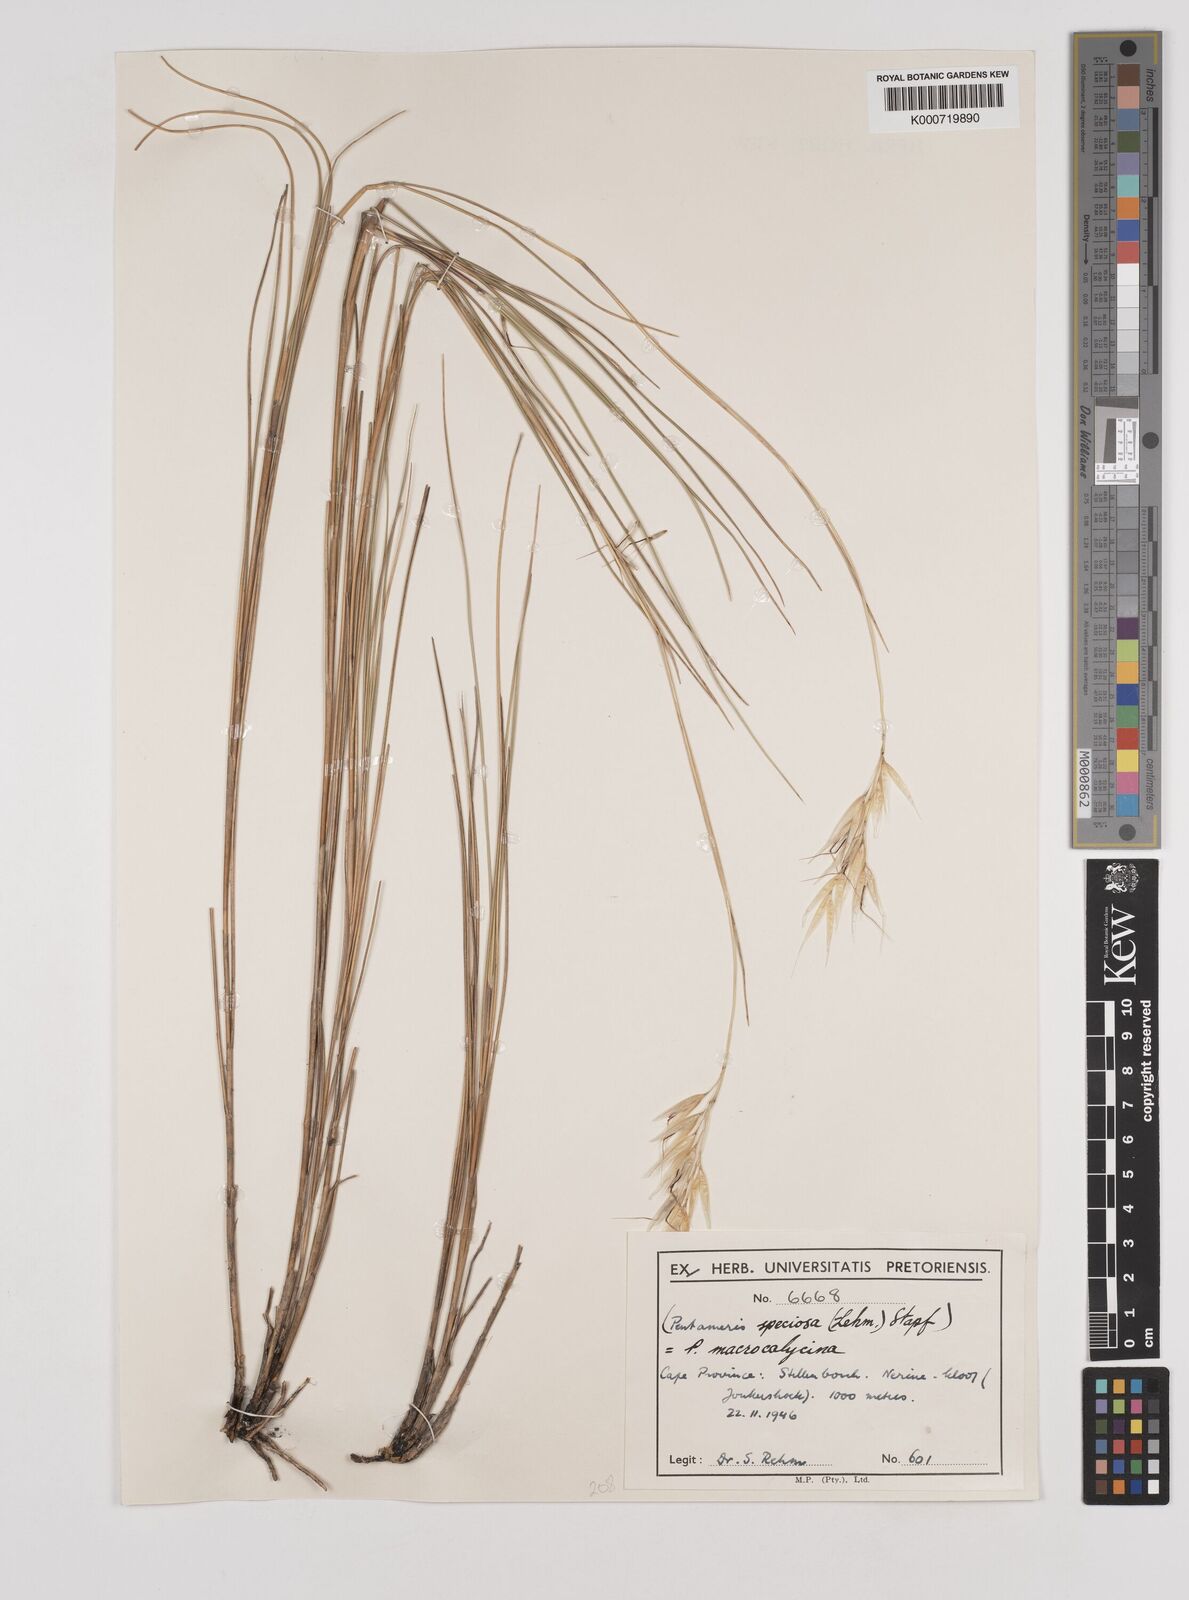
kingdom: Plantae
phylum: Tracheophyta
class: Liliopsida
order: Poales
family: Poaceae
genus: Pentameris
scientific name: Pentameris macrocalycina
